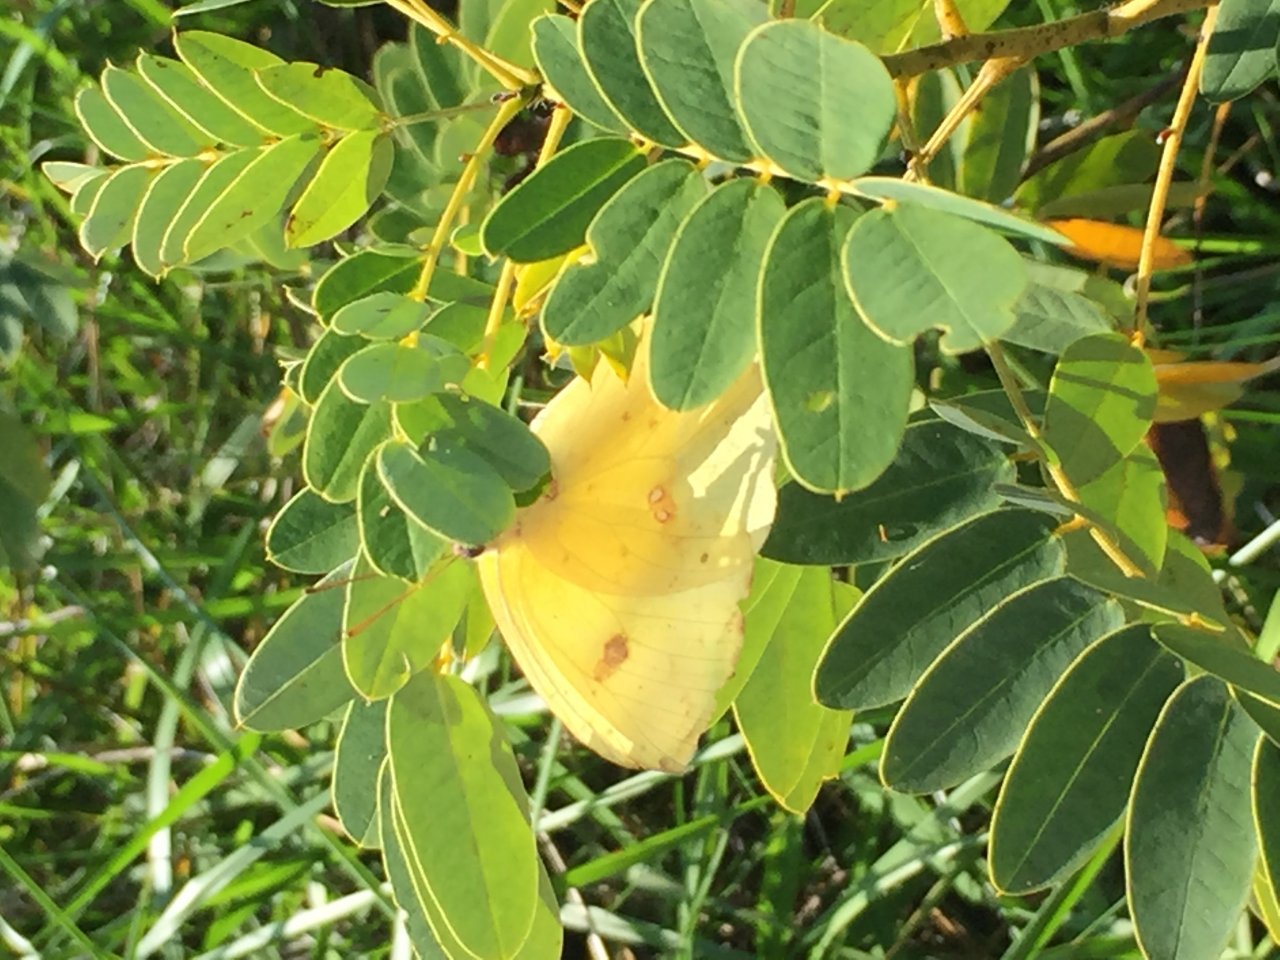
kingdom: Animalia
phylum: Arthropoda
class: Insecta
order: Lepidoptera
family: Pieridae
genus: Phoebis
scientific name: Phoebis sennae
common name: Cloudless Sulphur
